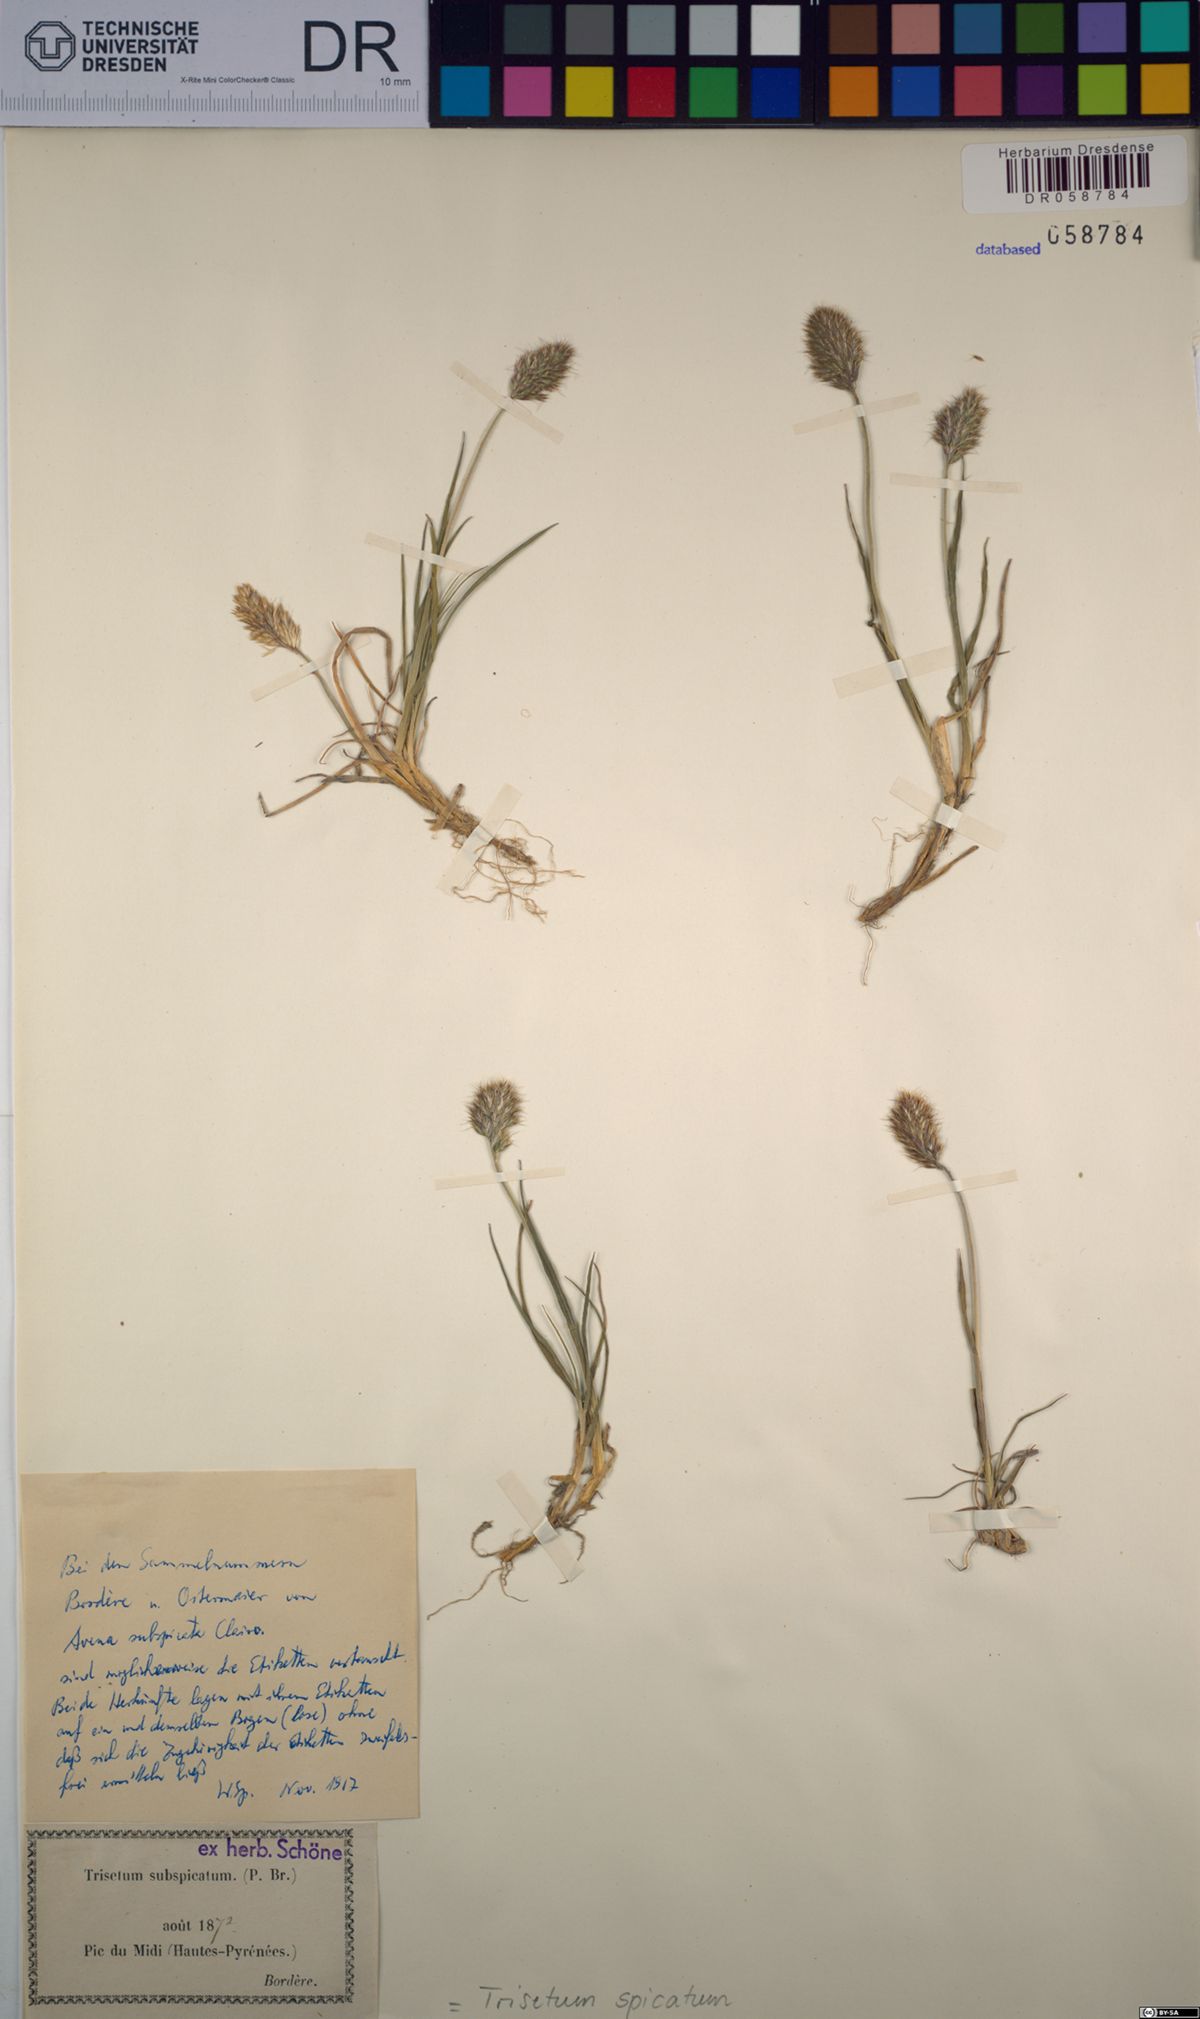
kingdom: Plantae
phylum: Tracheophyta
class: Liliopsida
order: Poales
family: Poaceae
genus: Koeleria
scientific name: Koeleria spicata
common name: Mountain trisetum
